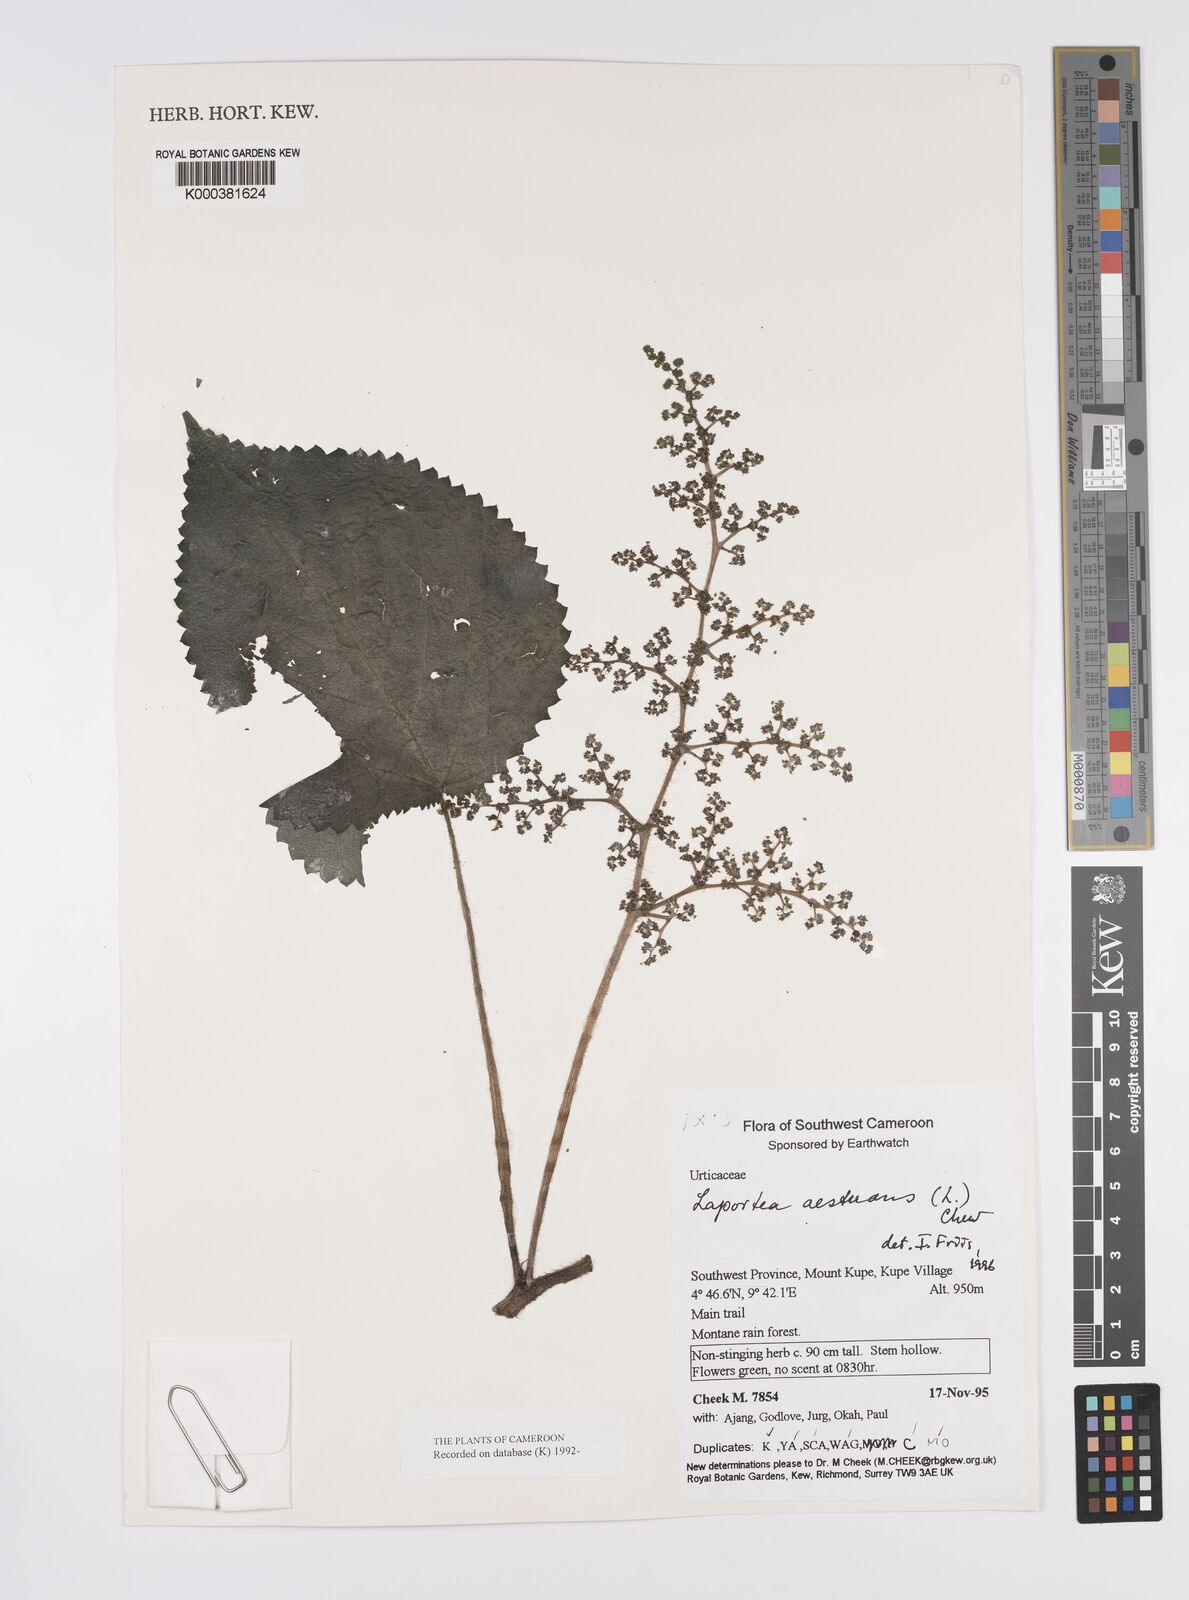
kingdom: Plantae
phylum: Tracheophyta
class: Magnoliopsida
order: Rosales
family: Urticaceae
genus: Laportea
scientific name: Laportea aestuans
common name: West indian woodnettle
